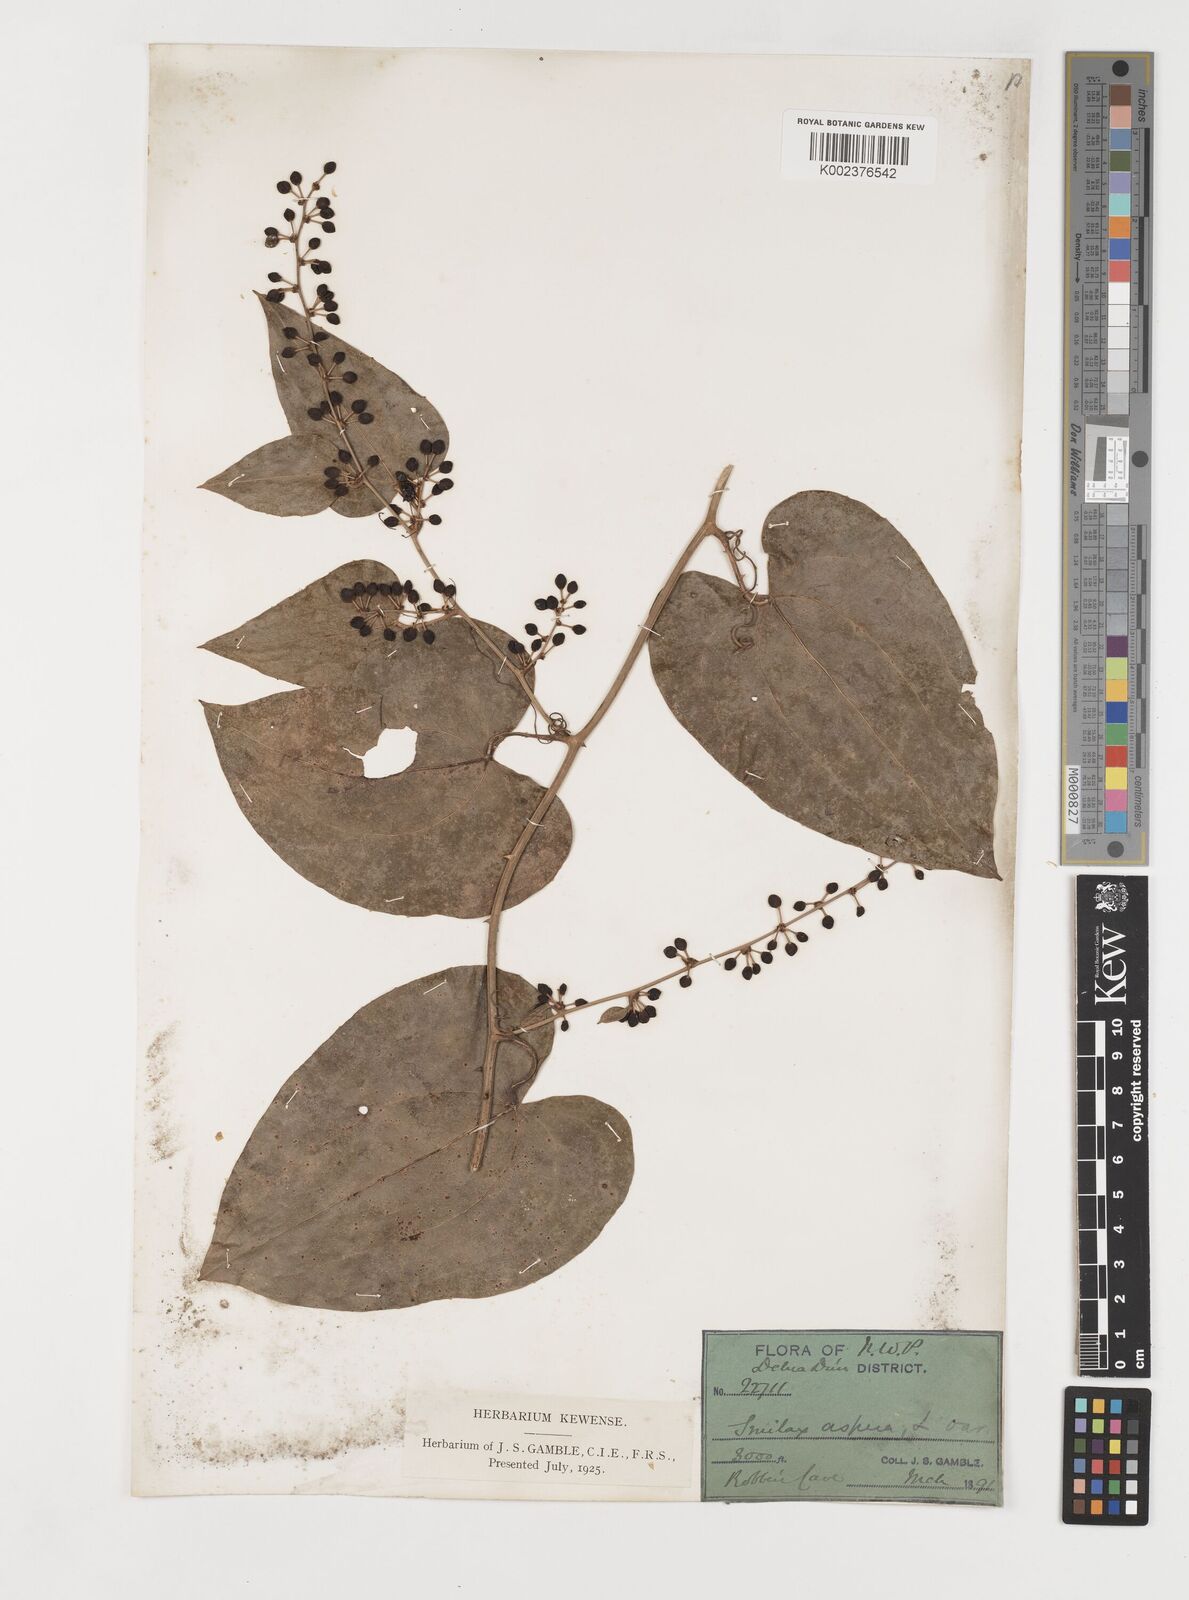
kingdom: Plantae
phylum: Tracheophyta
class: Liliopsida
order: Liliales
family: Smilacaceae
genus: Smilax
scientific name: Smilax aspera
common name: Common smilax
